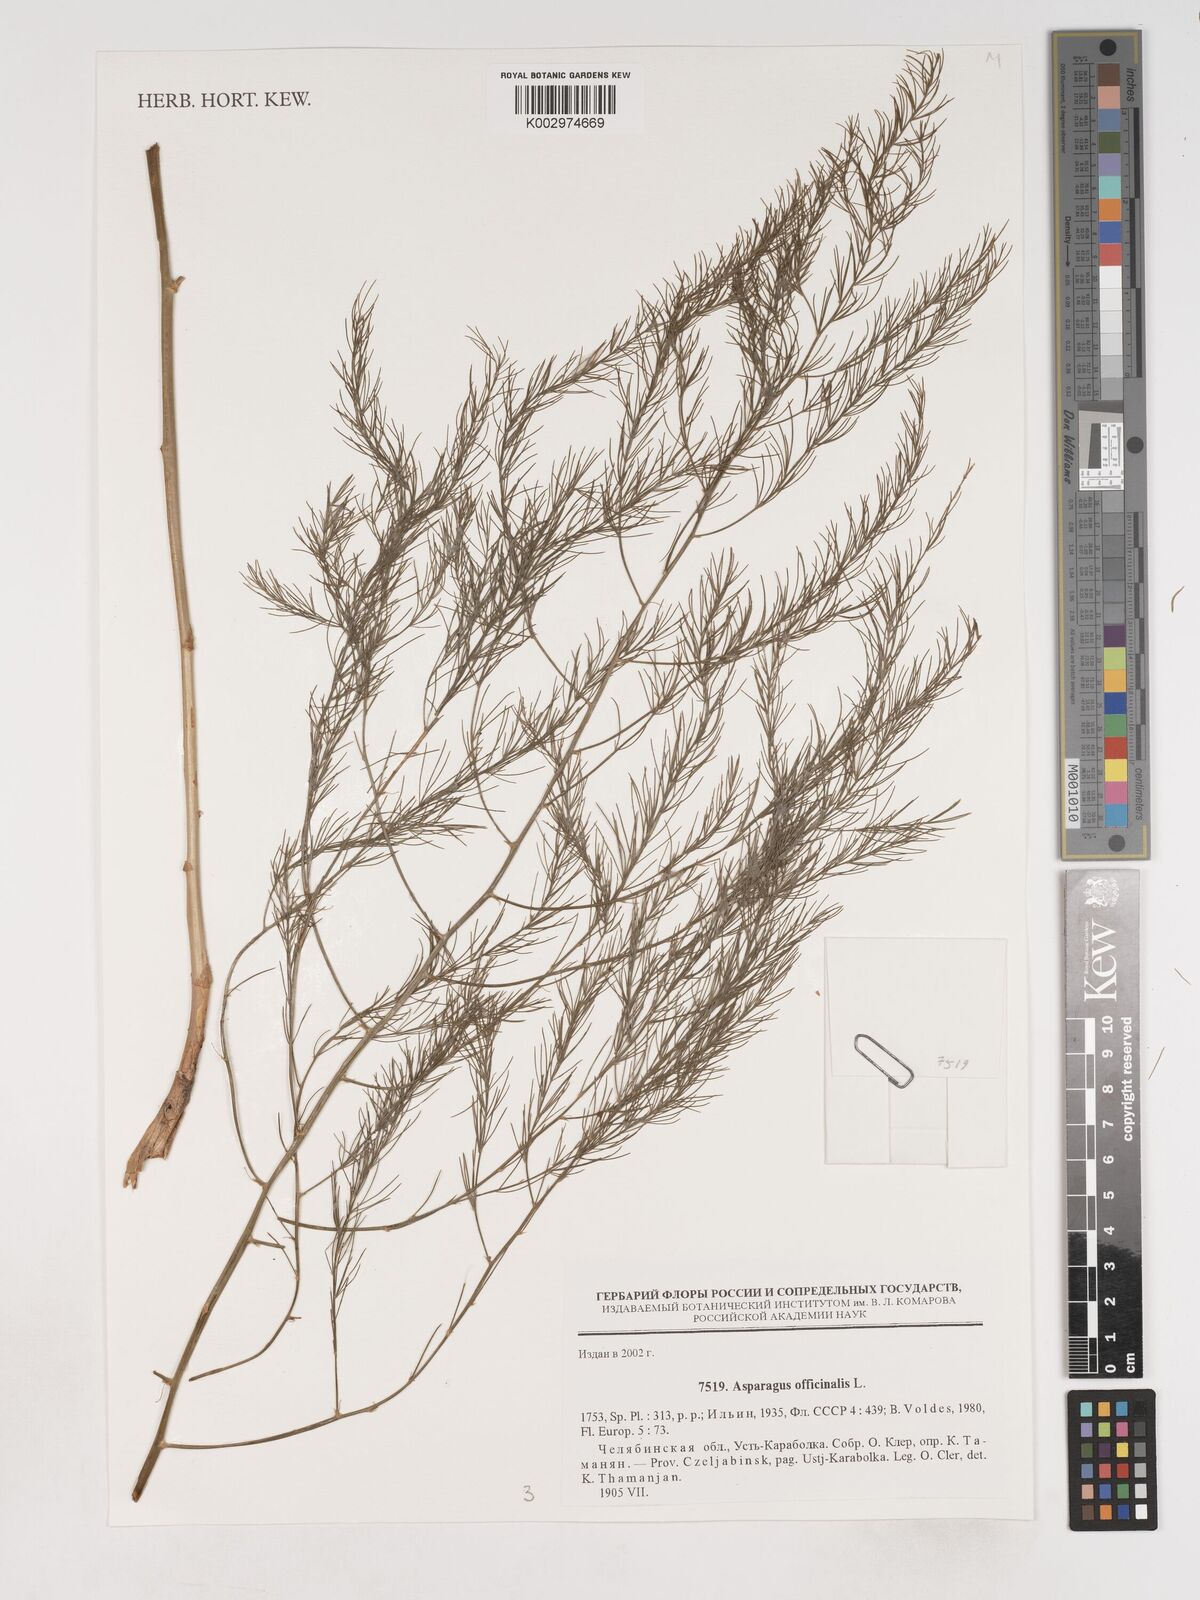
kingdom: Plantae
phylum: Tracheophyta
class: Liliopsida
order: Asparagales
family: Asparagaceae
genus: Asparagus
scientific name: Asparagus pallasii
